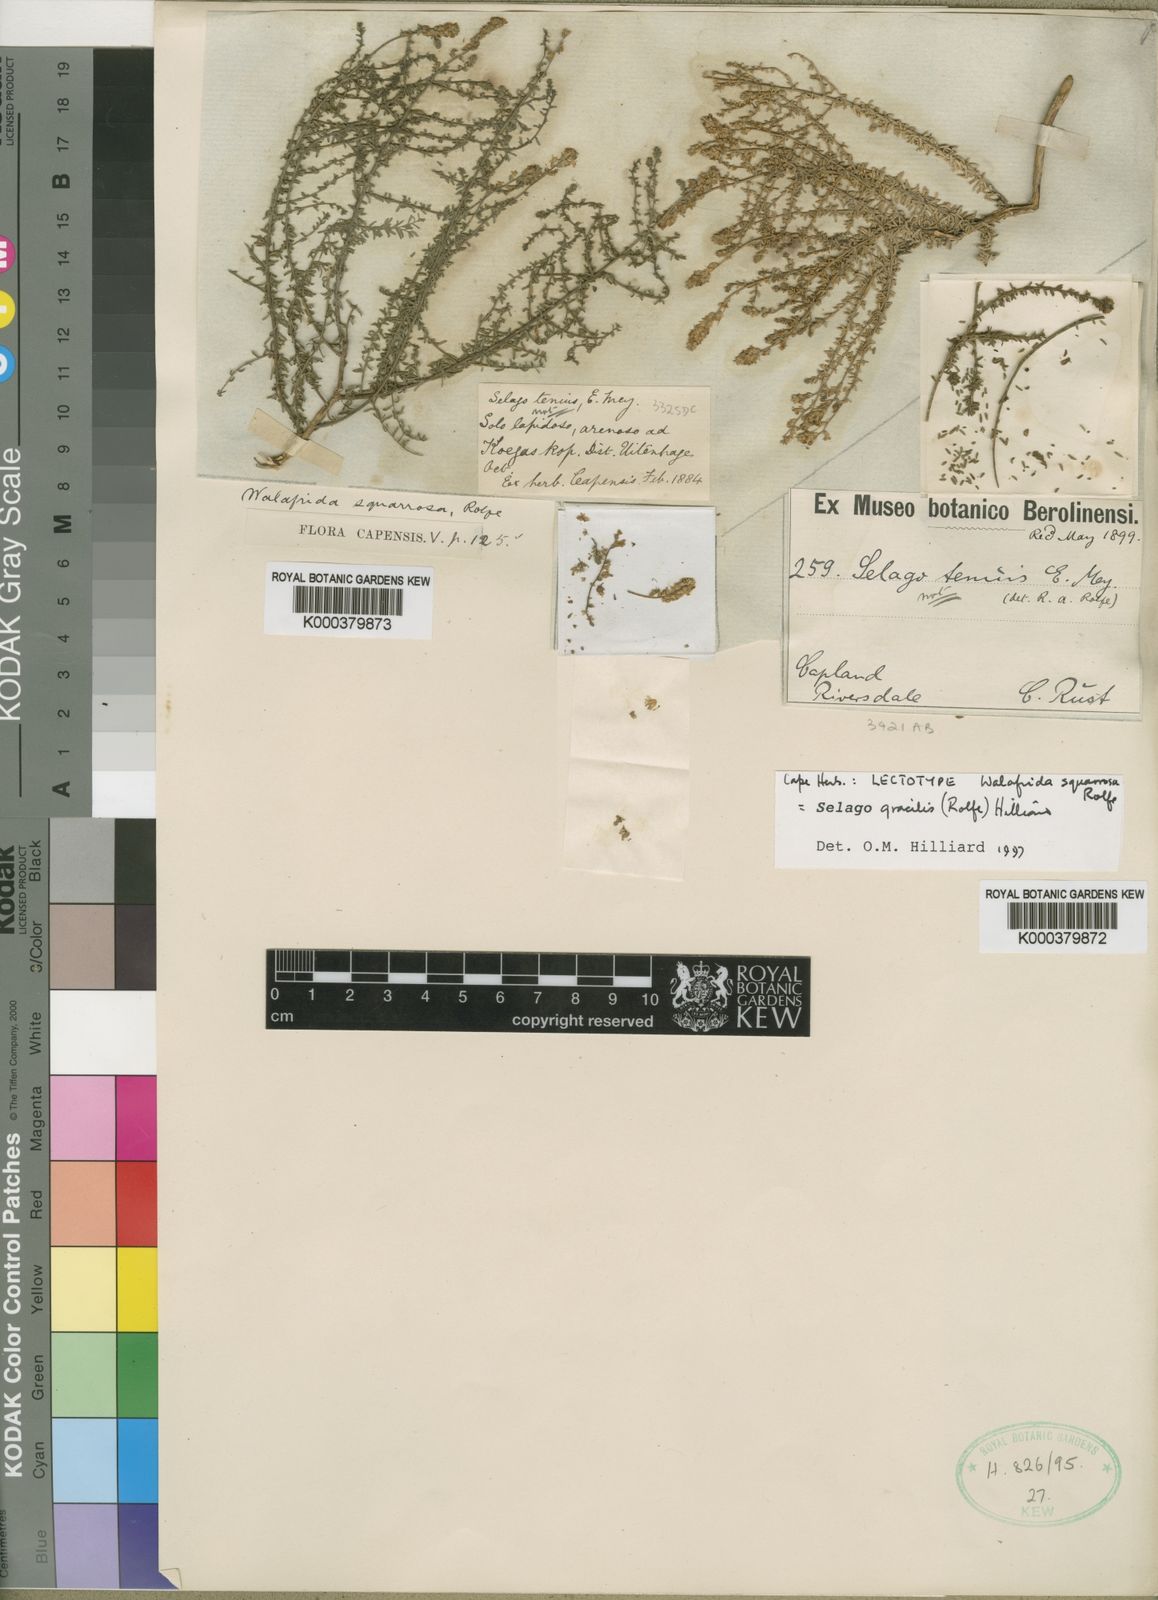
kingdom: Plantae
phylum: Tracheophyta
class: Magnoliopsida
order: Lamiales
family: Scrophulariaceae
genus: Selago
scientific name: Selago gracilis
